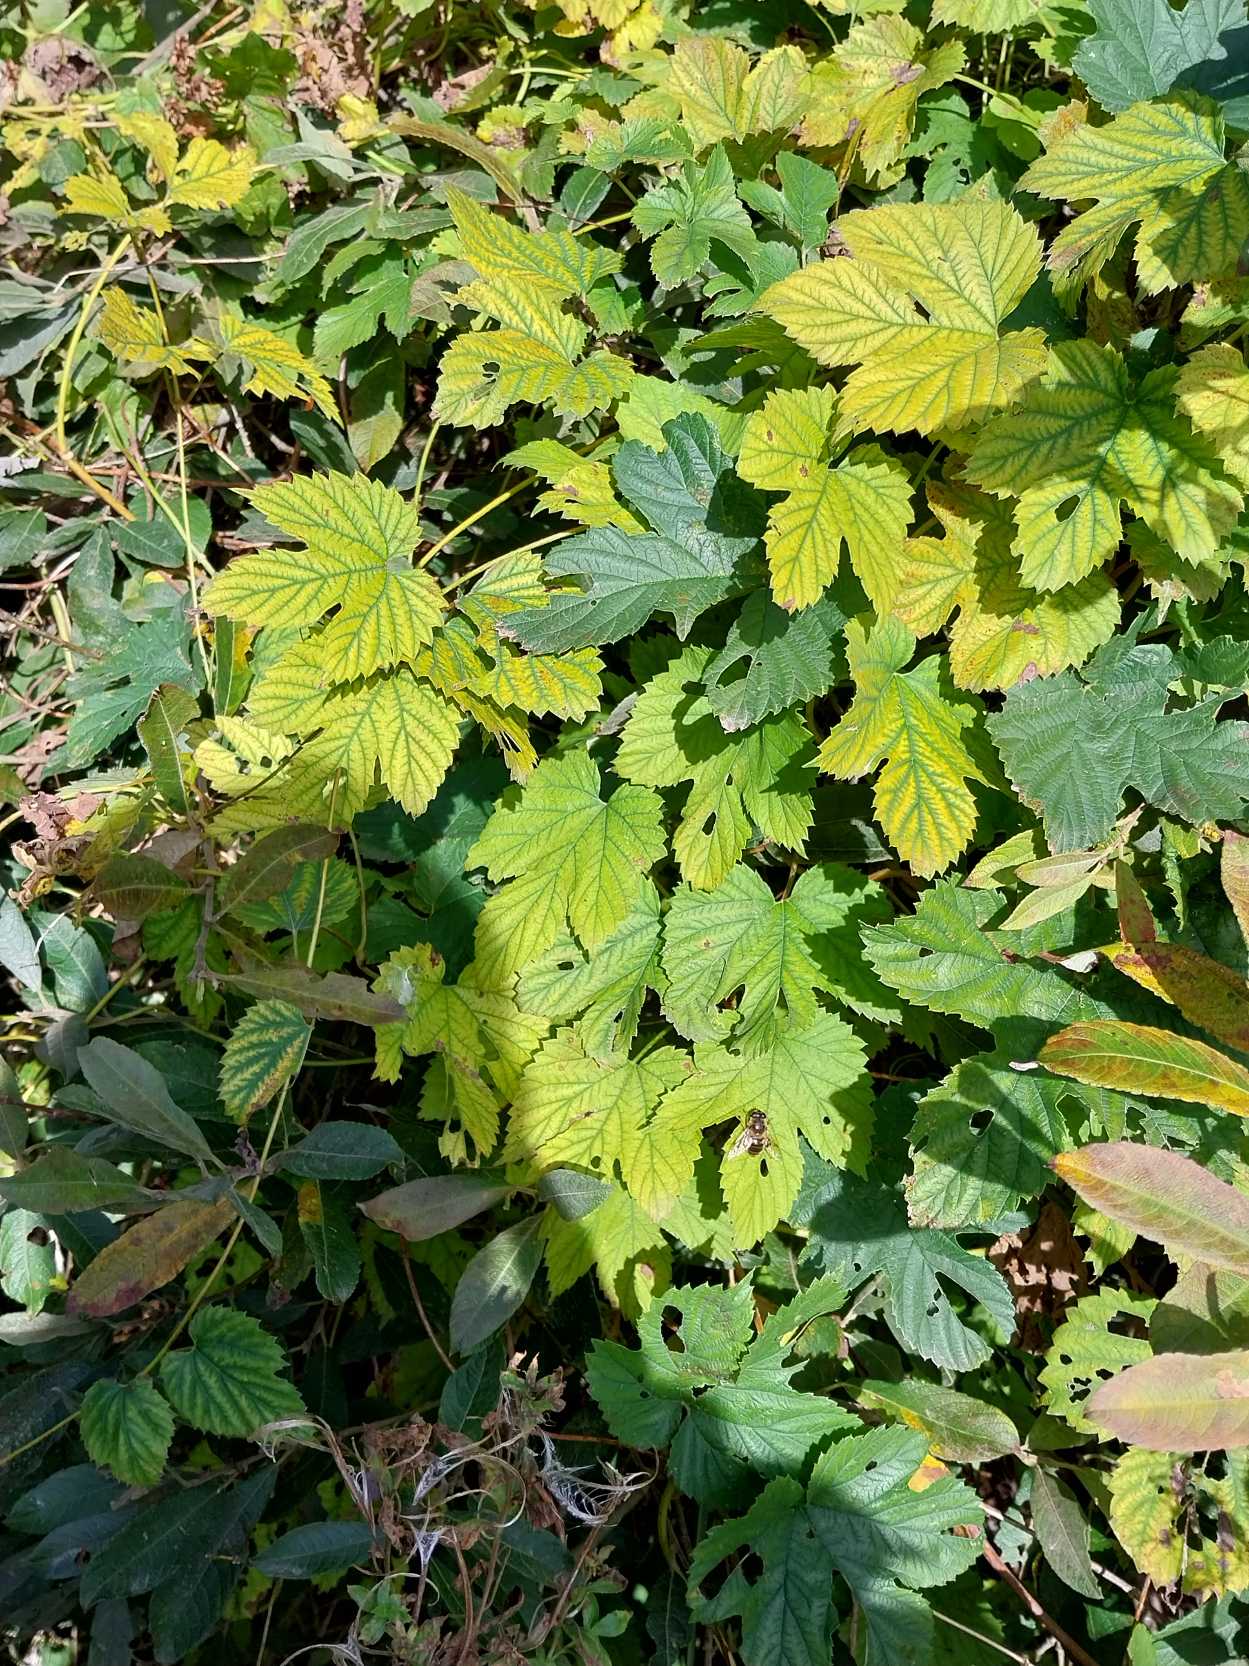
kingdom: Plantae
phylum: Tracheophyta
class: Magnoliopsida
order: Rosales
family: Cannabaceae
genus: Humulus
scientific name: Humulus lupulus
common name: Humle
